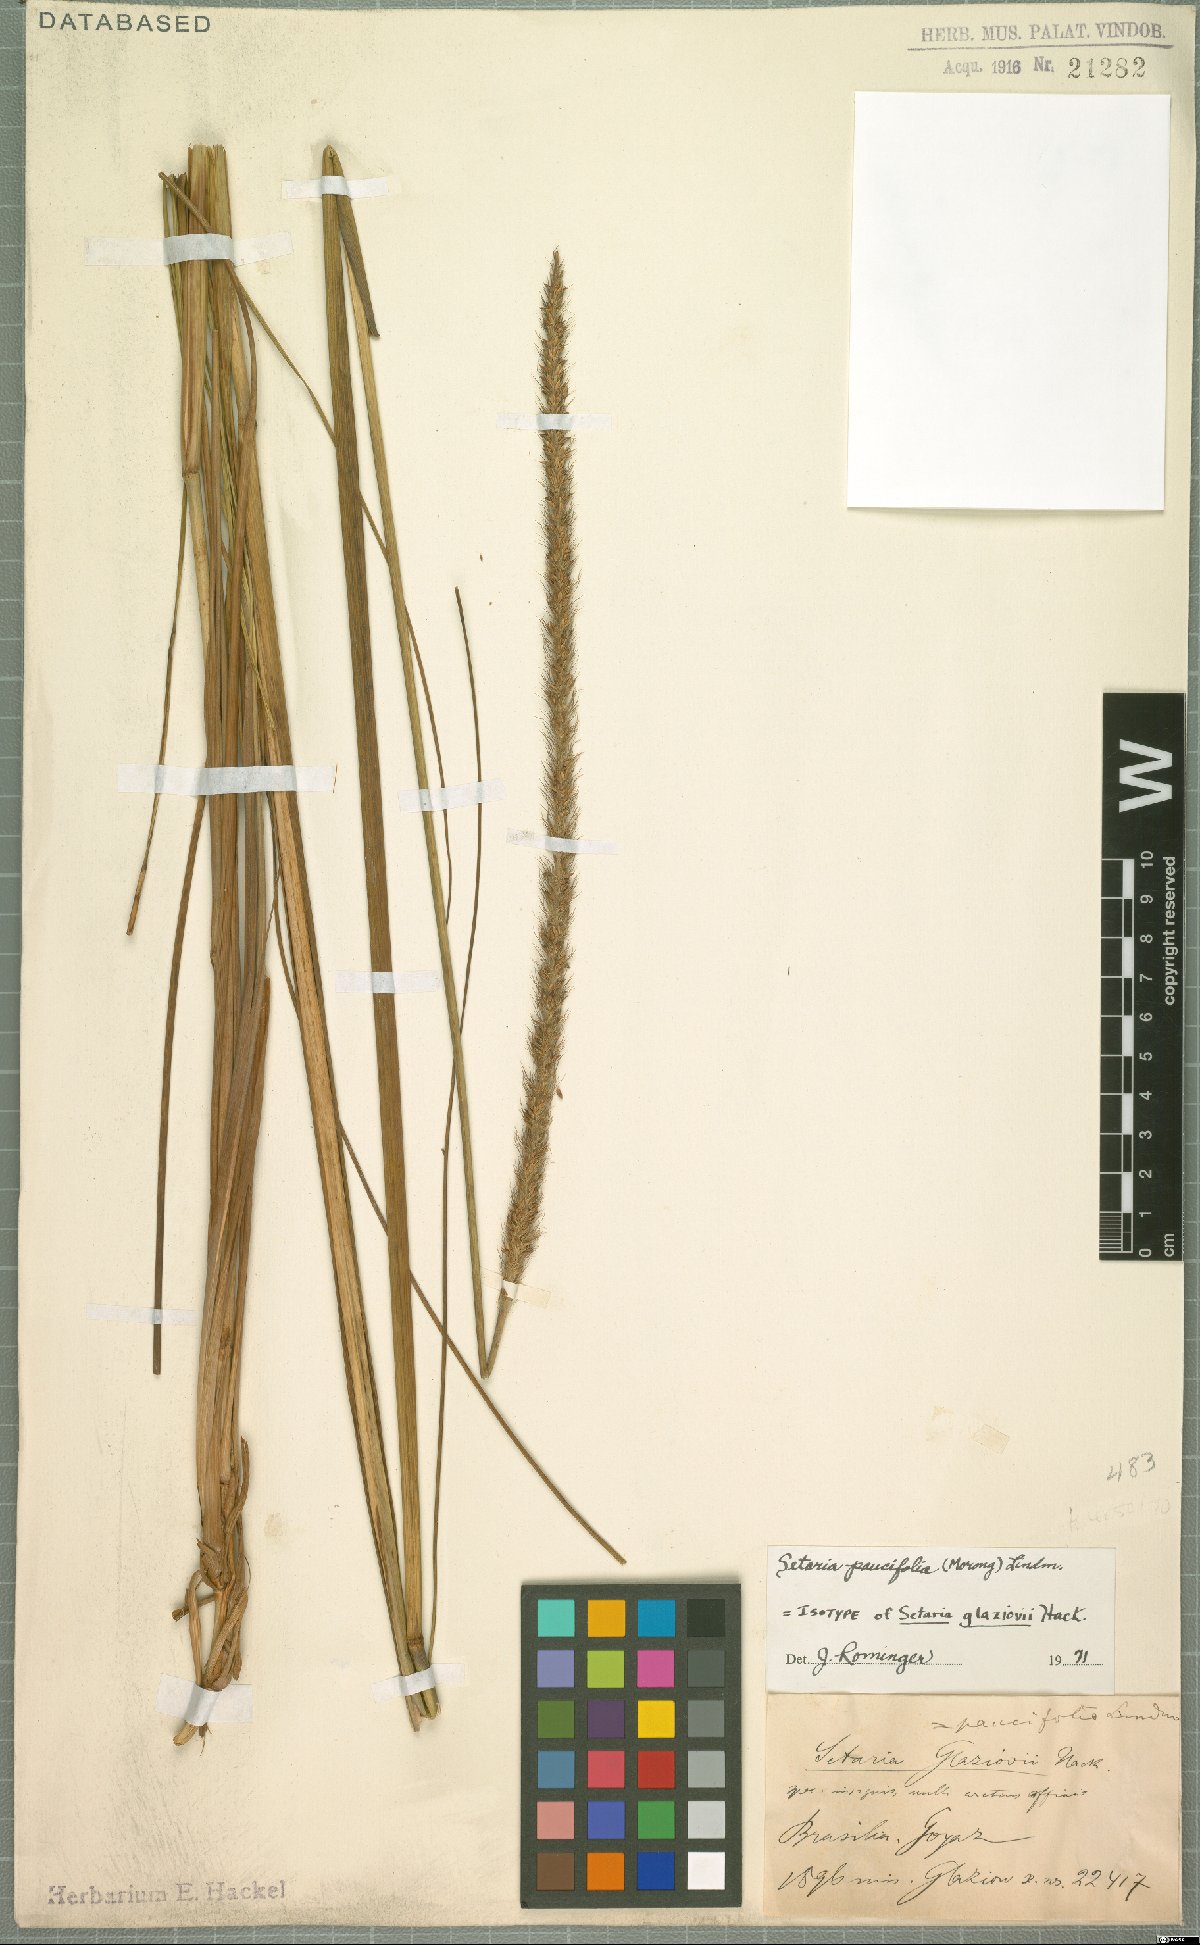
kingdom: Plantae
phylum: Tracheophyta
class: Liliopsida
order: Poales
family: Poaceae
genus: Setaria
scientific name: Setaria paucifolia
